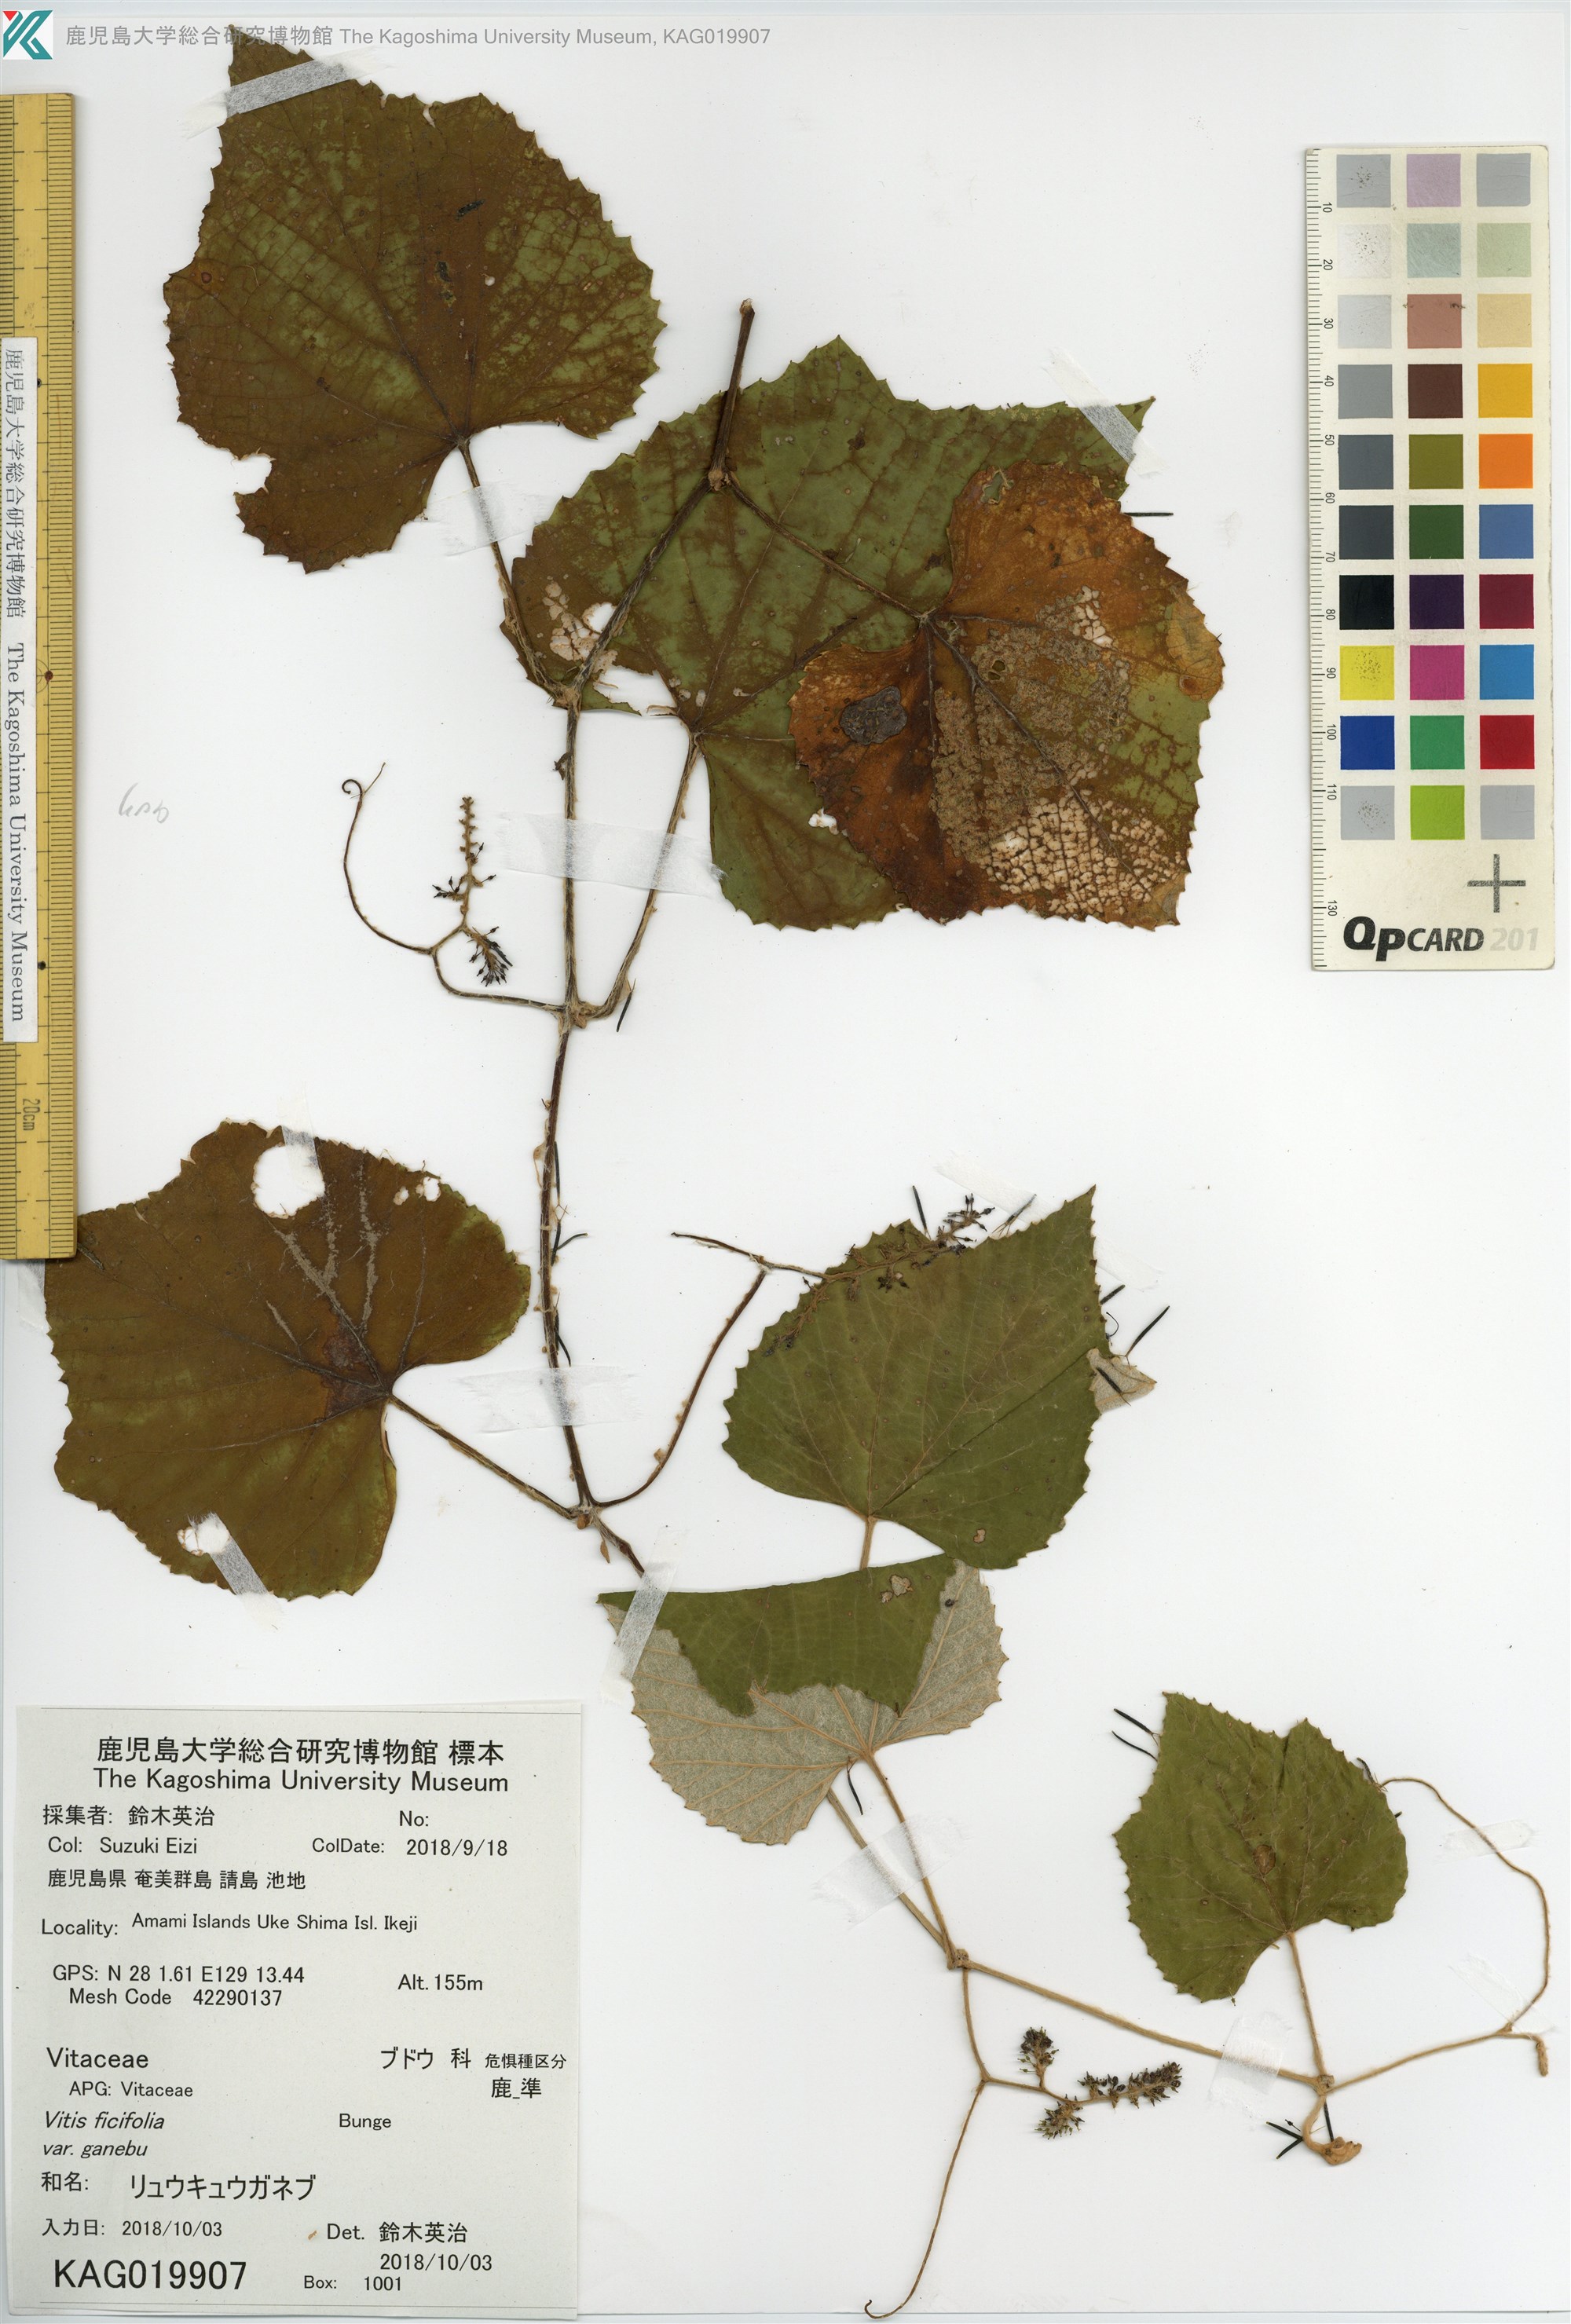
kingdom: Plantae
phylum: Tracheophyta
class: Magnoliopsida
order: Vitales
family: Vitaceae
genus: Vitis
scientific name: Vitis ficifolia
